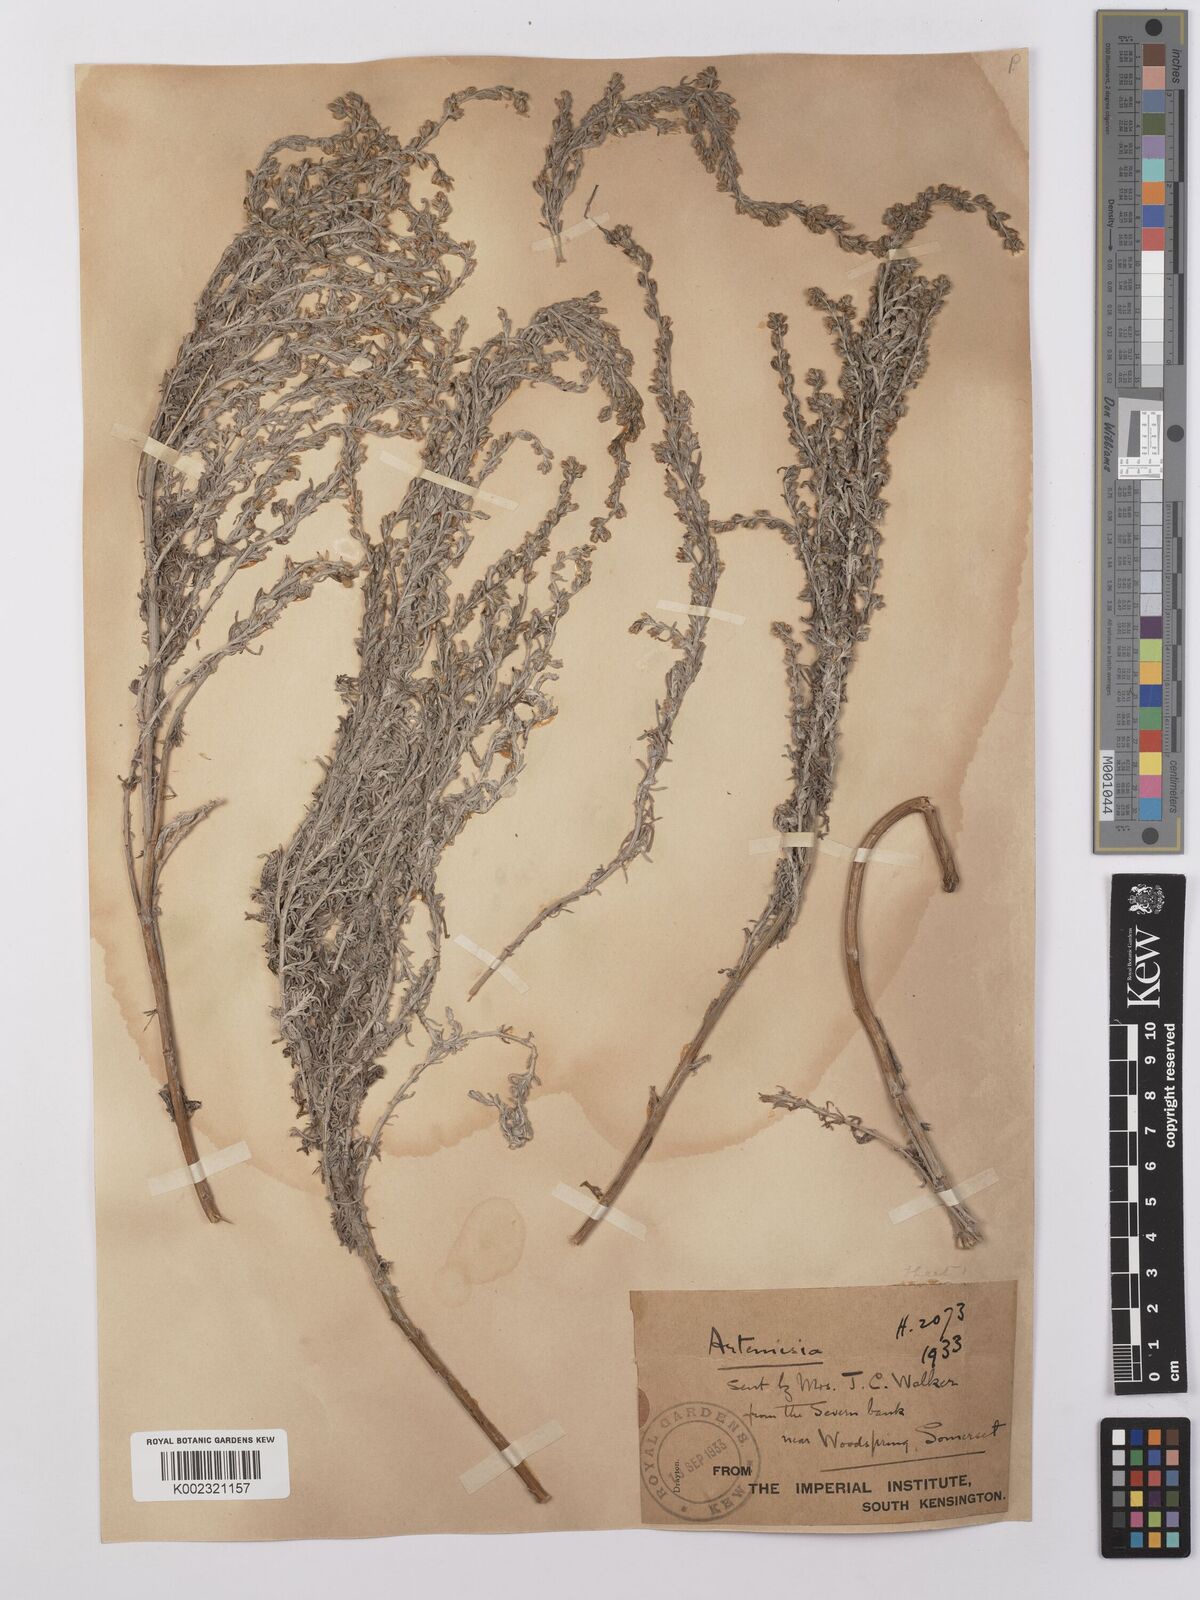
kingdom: Plantae
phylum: Tracheophyta
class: Magnoliopsida
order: Asterales
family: Asteraceae
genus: Artemisia
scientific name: Artemisia maritima
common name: Wormseed
